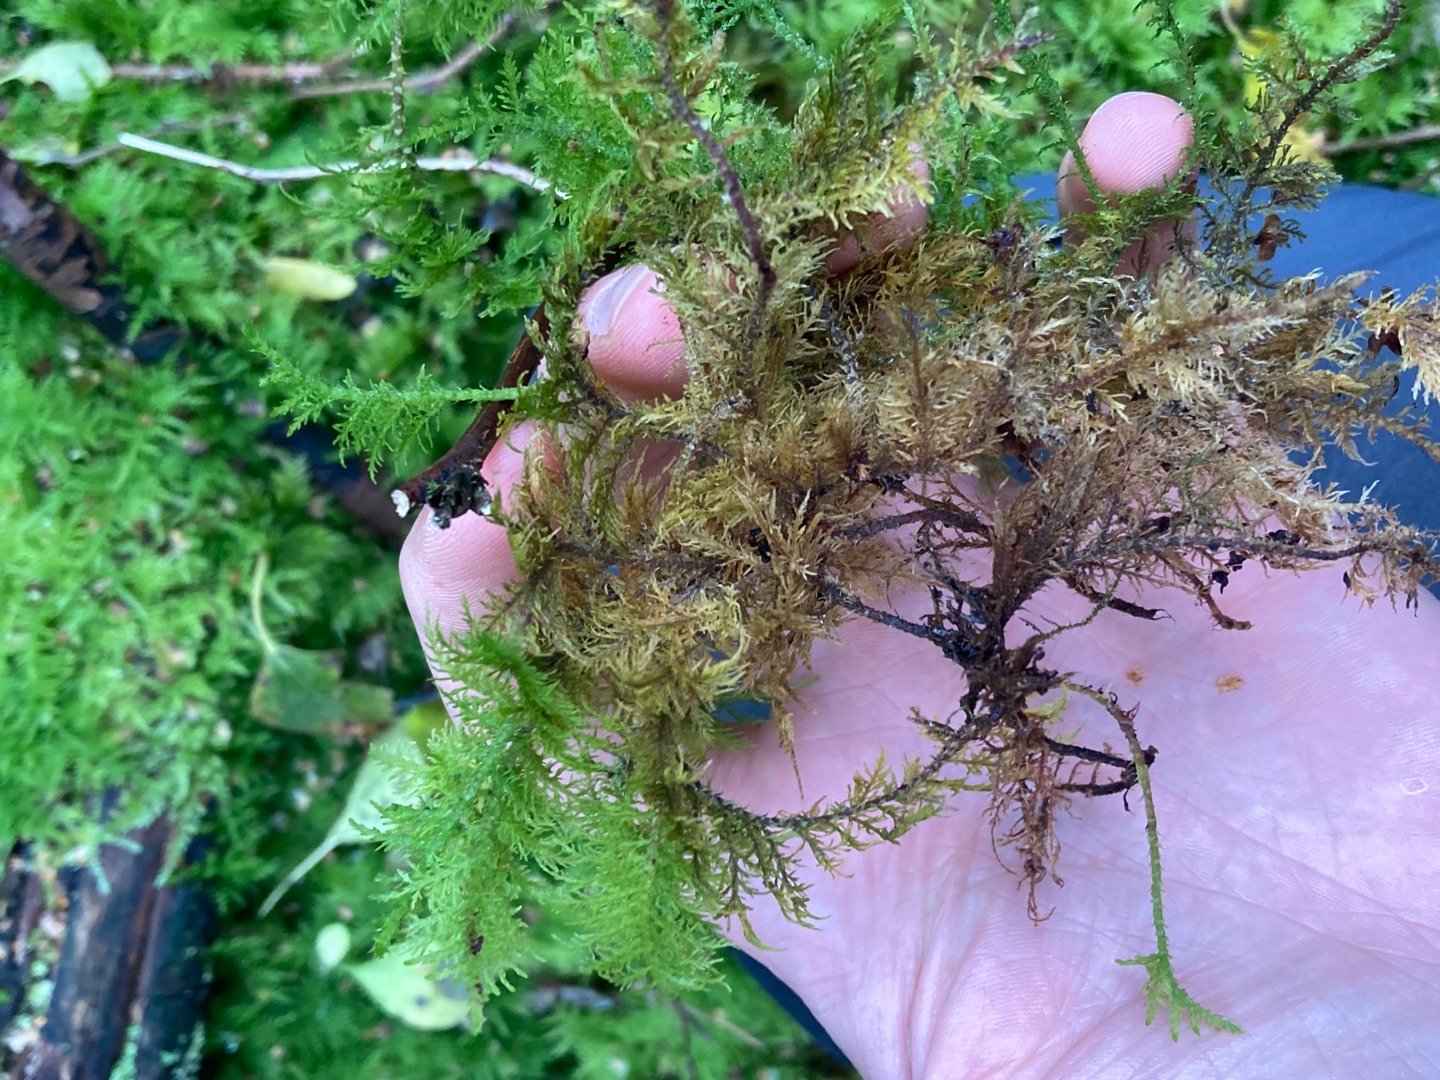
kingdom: Plantae
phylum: Bryophyta
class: Bryopsida
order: Hypnales
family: Thuidiaceae
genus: Thuidium
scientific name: Thuidium tamariscinum
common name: Pryd-bregnemos
